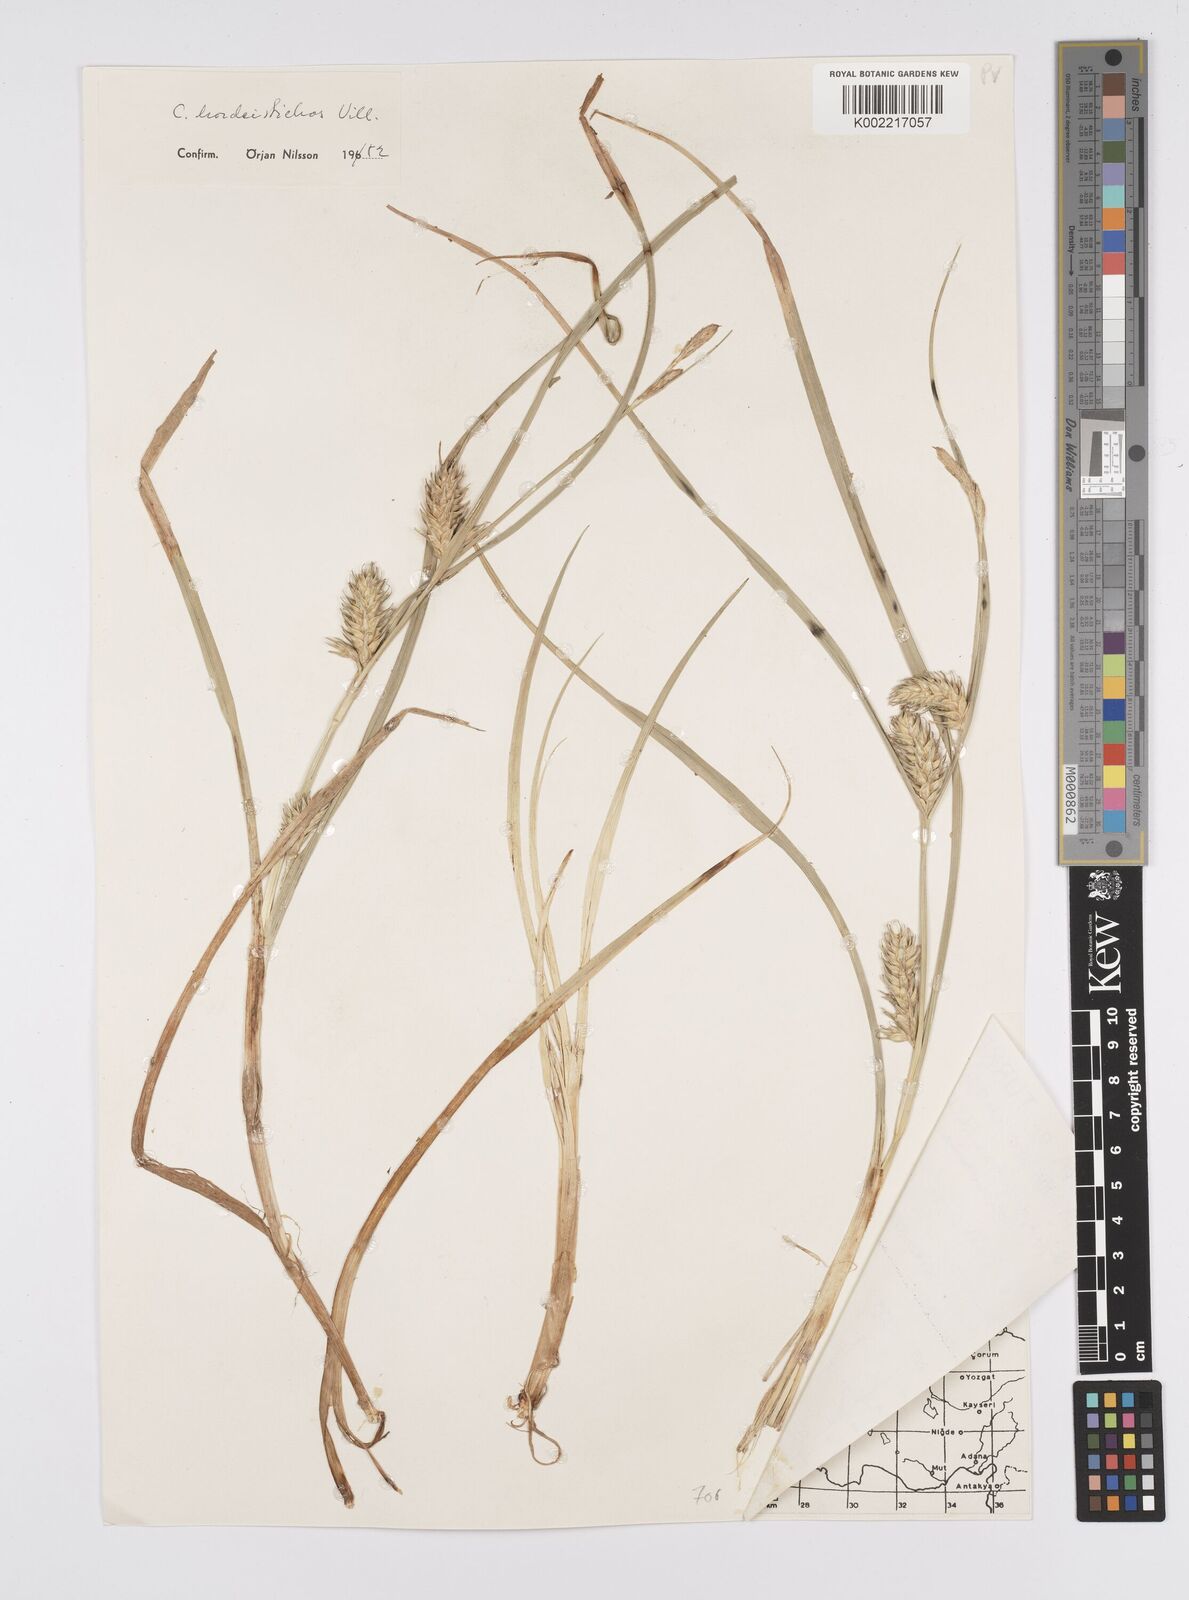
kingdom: Plantae
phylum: Tracheophyta
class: Liliopsida
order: Poales
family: Cyperaceae
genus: Carex
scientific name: Carex hordeistichos
